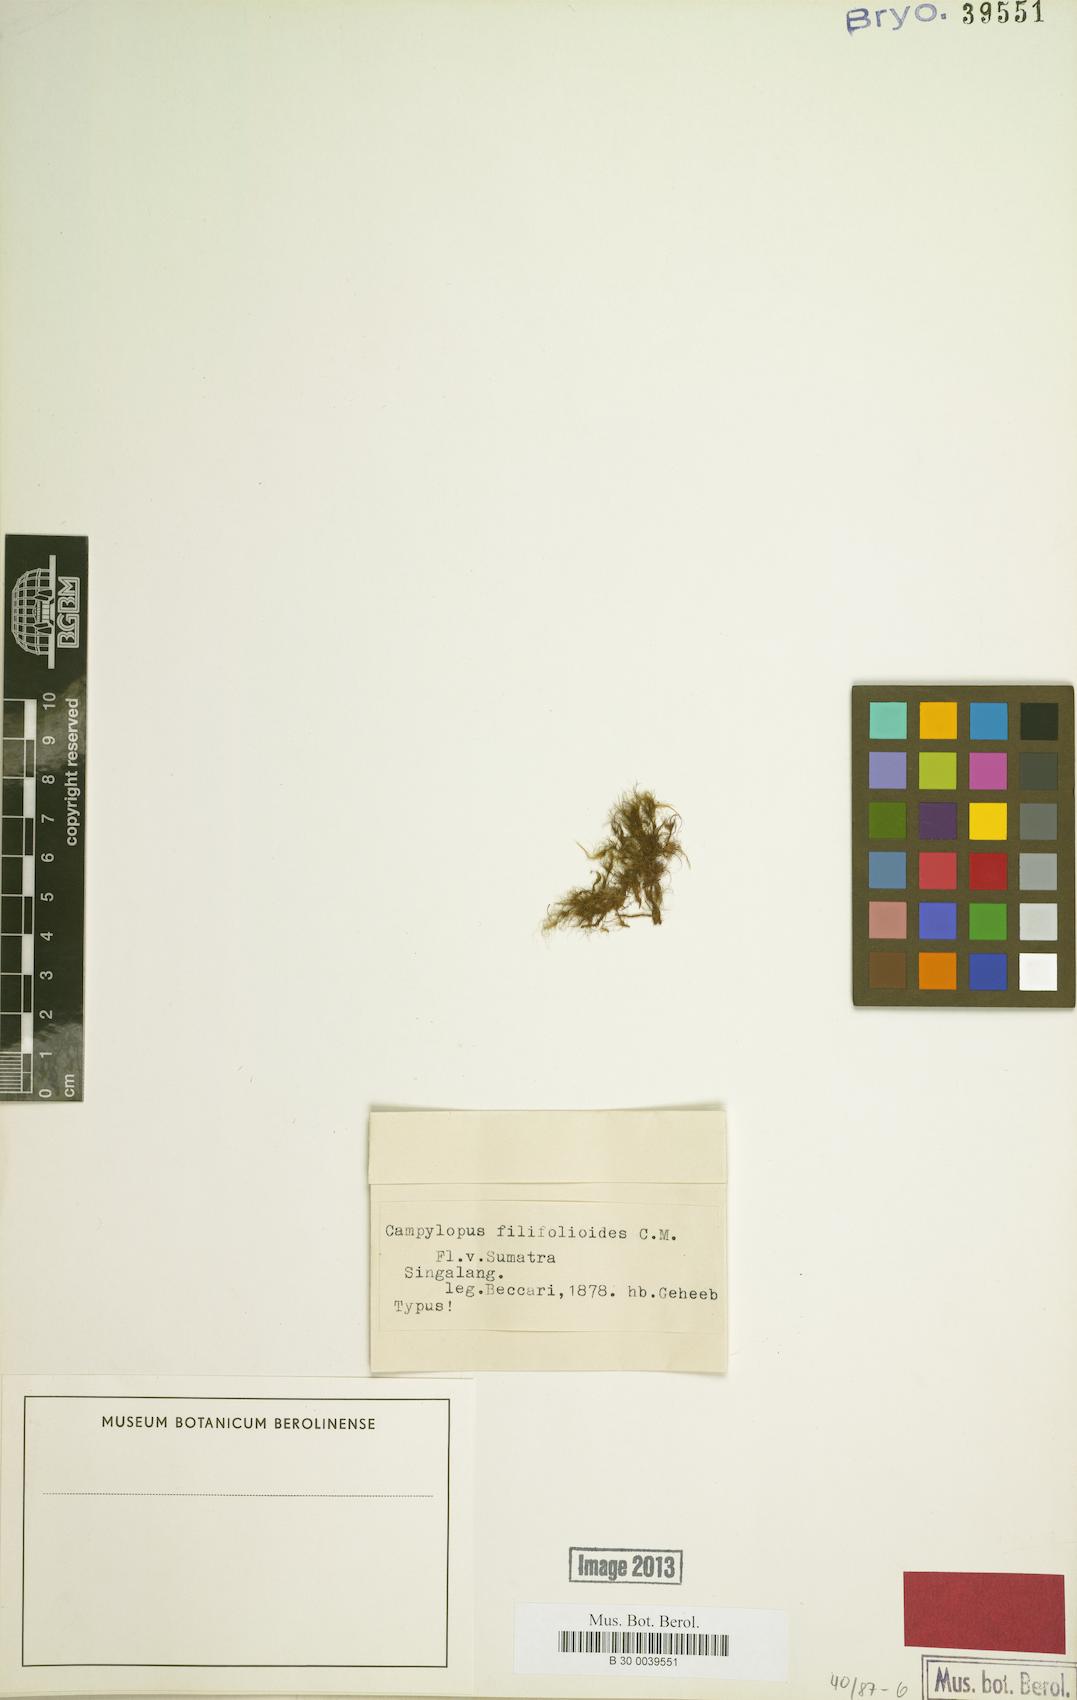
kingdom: Plantae
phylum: Bryophyta
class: Bryopsida
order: Dicranales
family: Dicranaceae
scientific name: Dicranaceae
